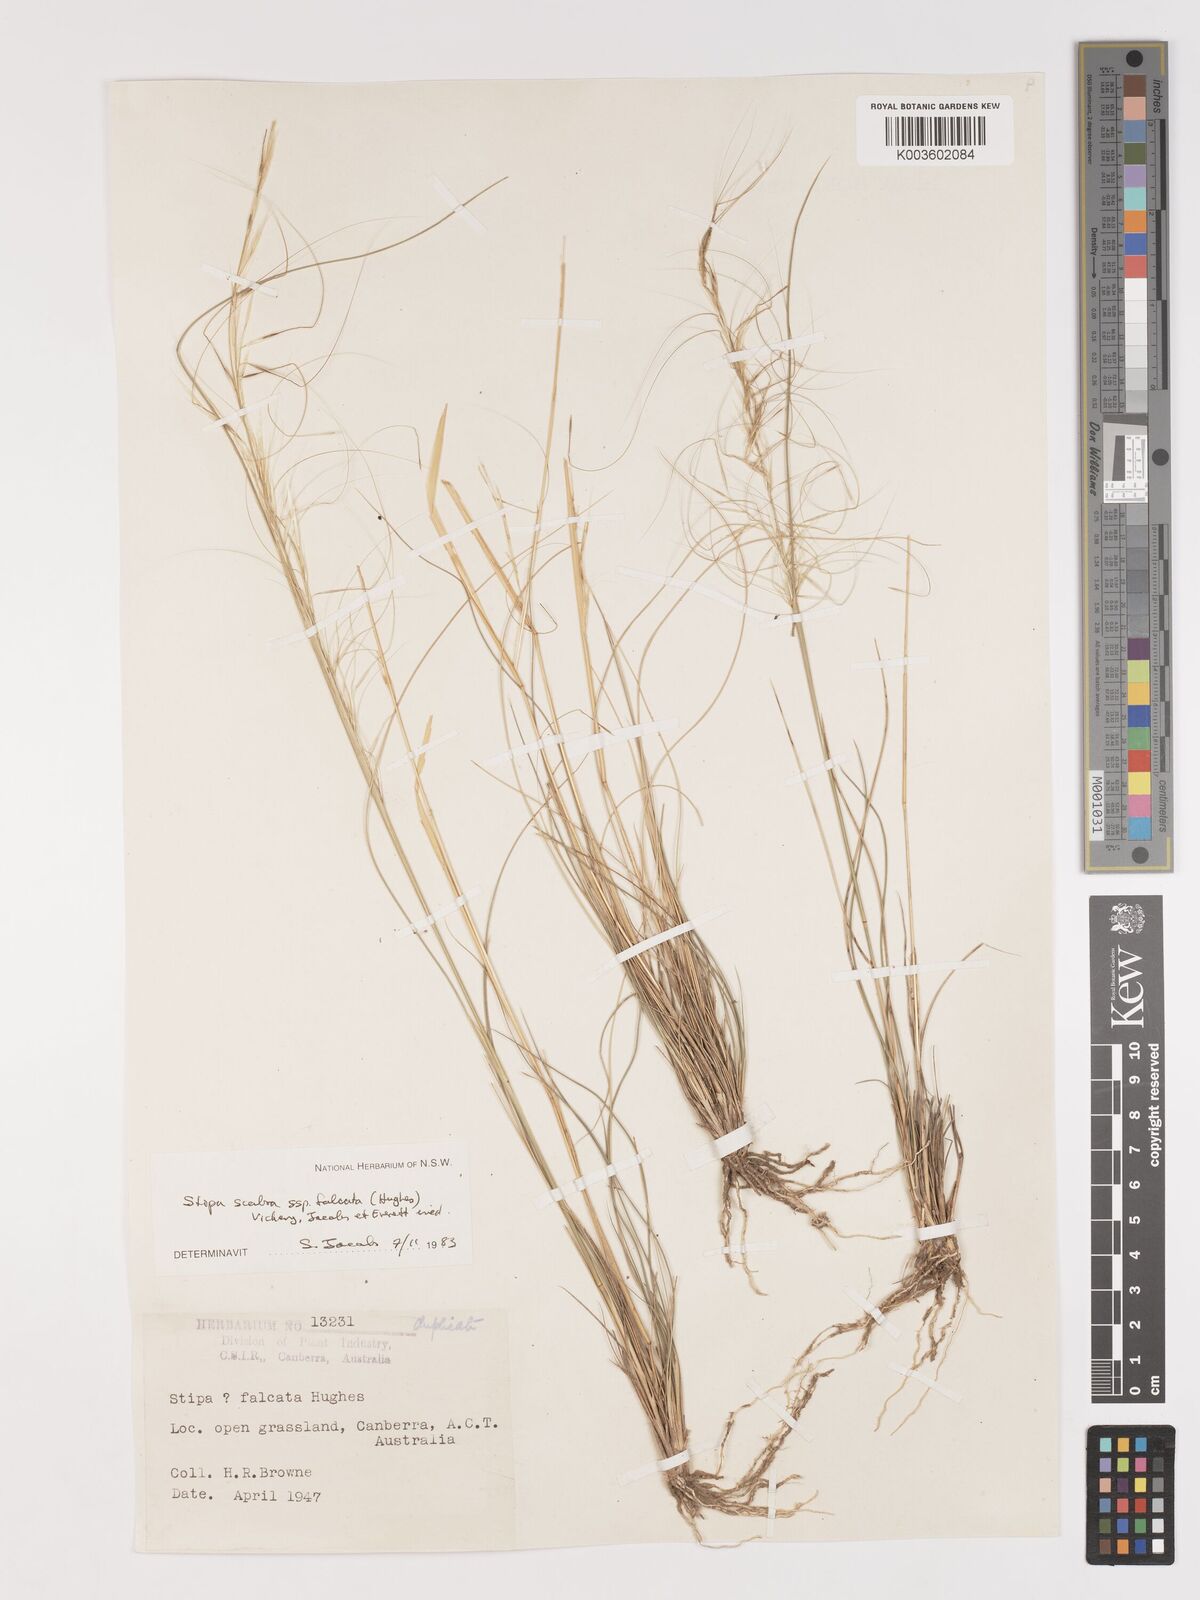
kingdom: Plantae
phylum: Tracheophyta
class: Liliopsida
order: Poales
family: Poaceae
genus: Austrostipa
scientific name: Austrostipa scabra
